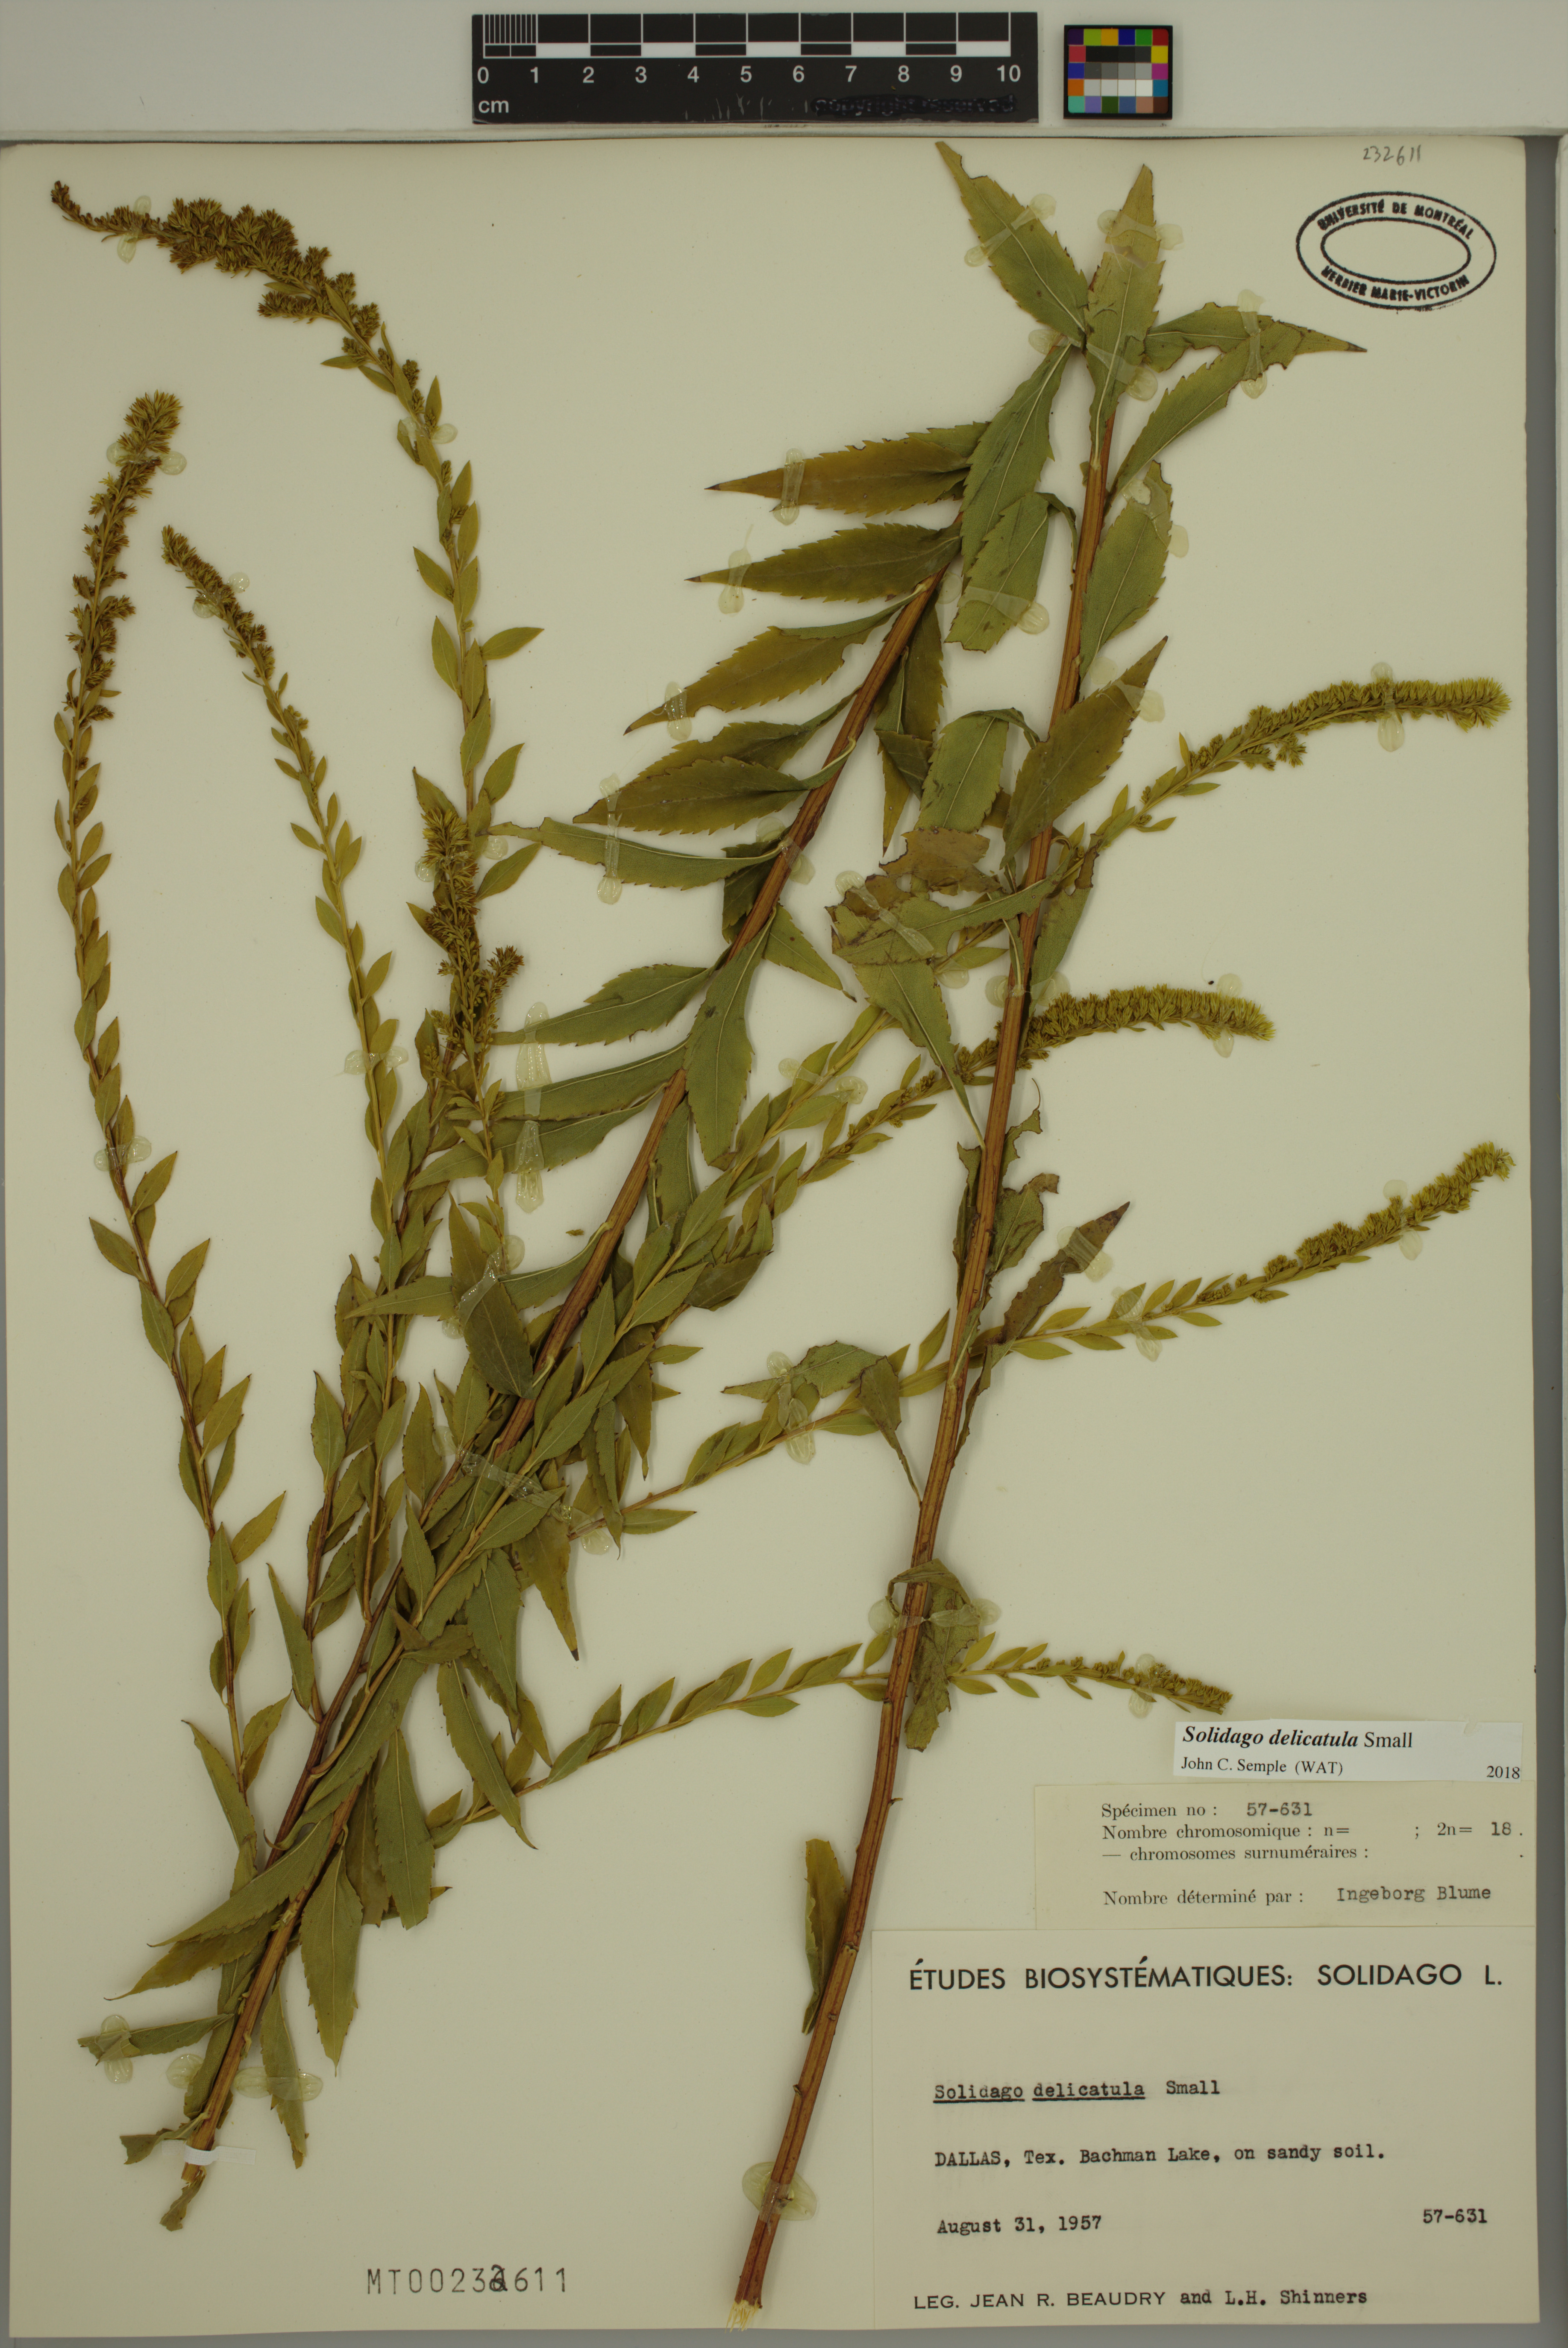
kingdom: Plantae
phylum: Tracheophyta
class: Magnoliopsida
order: Asterales
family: Asteraceae
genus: Solidago
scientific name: Solidago delicatula
